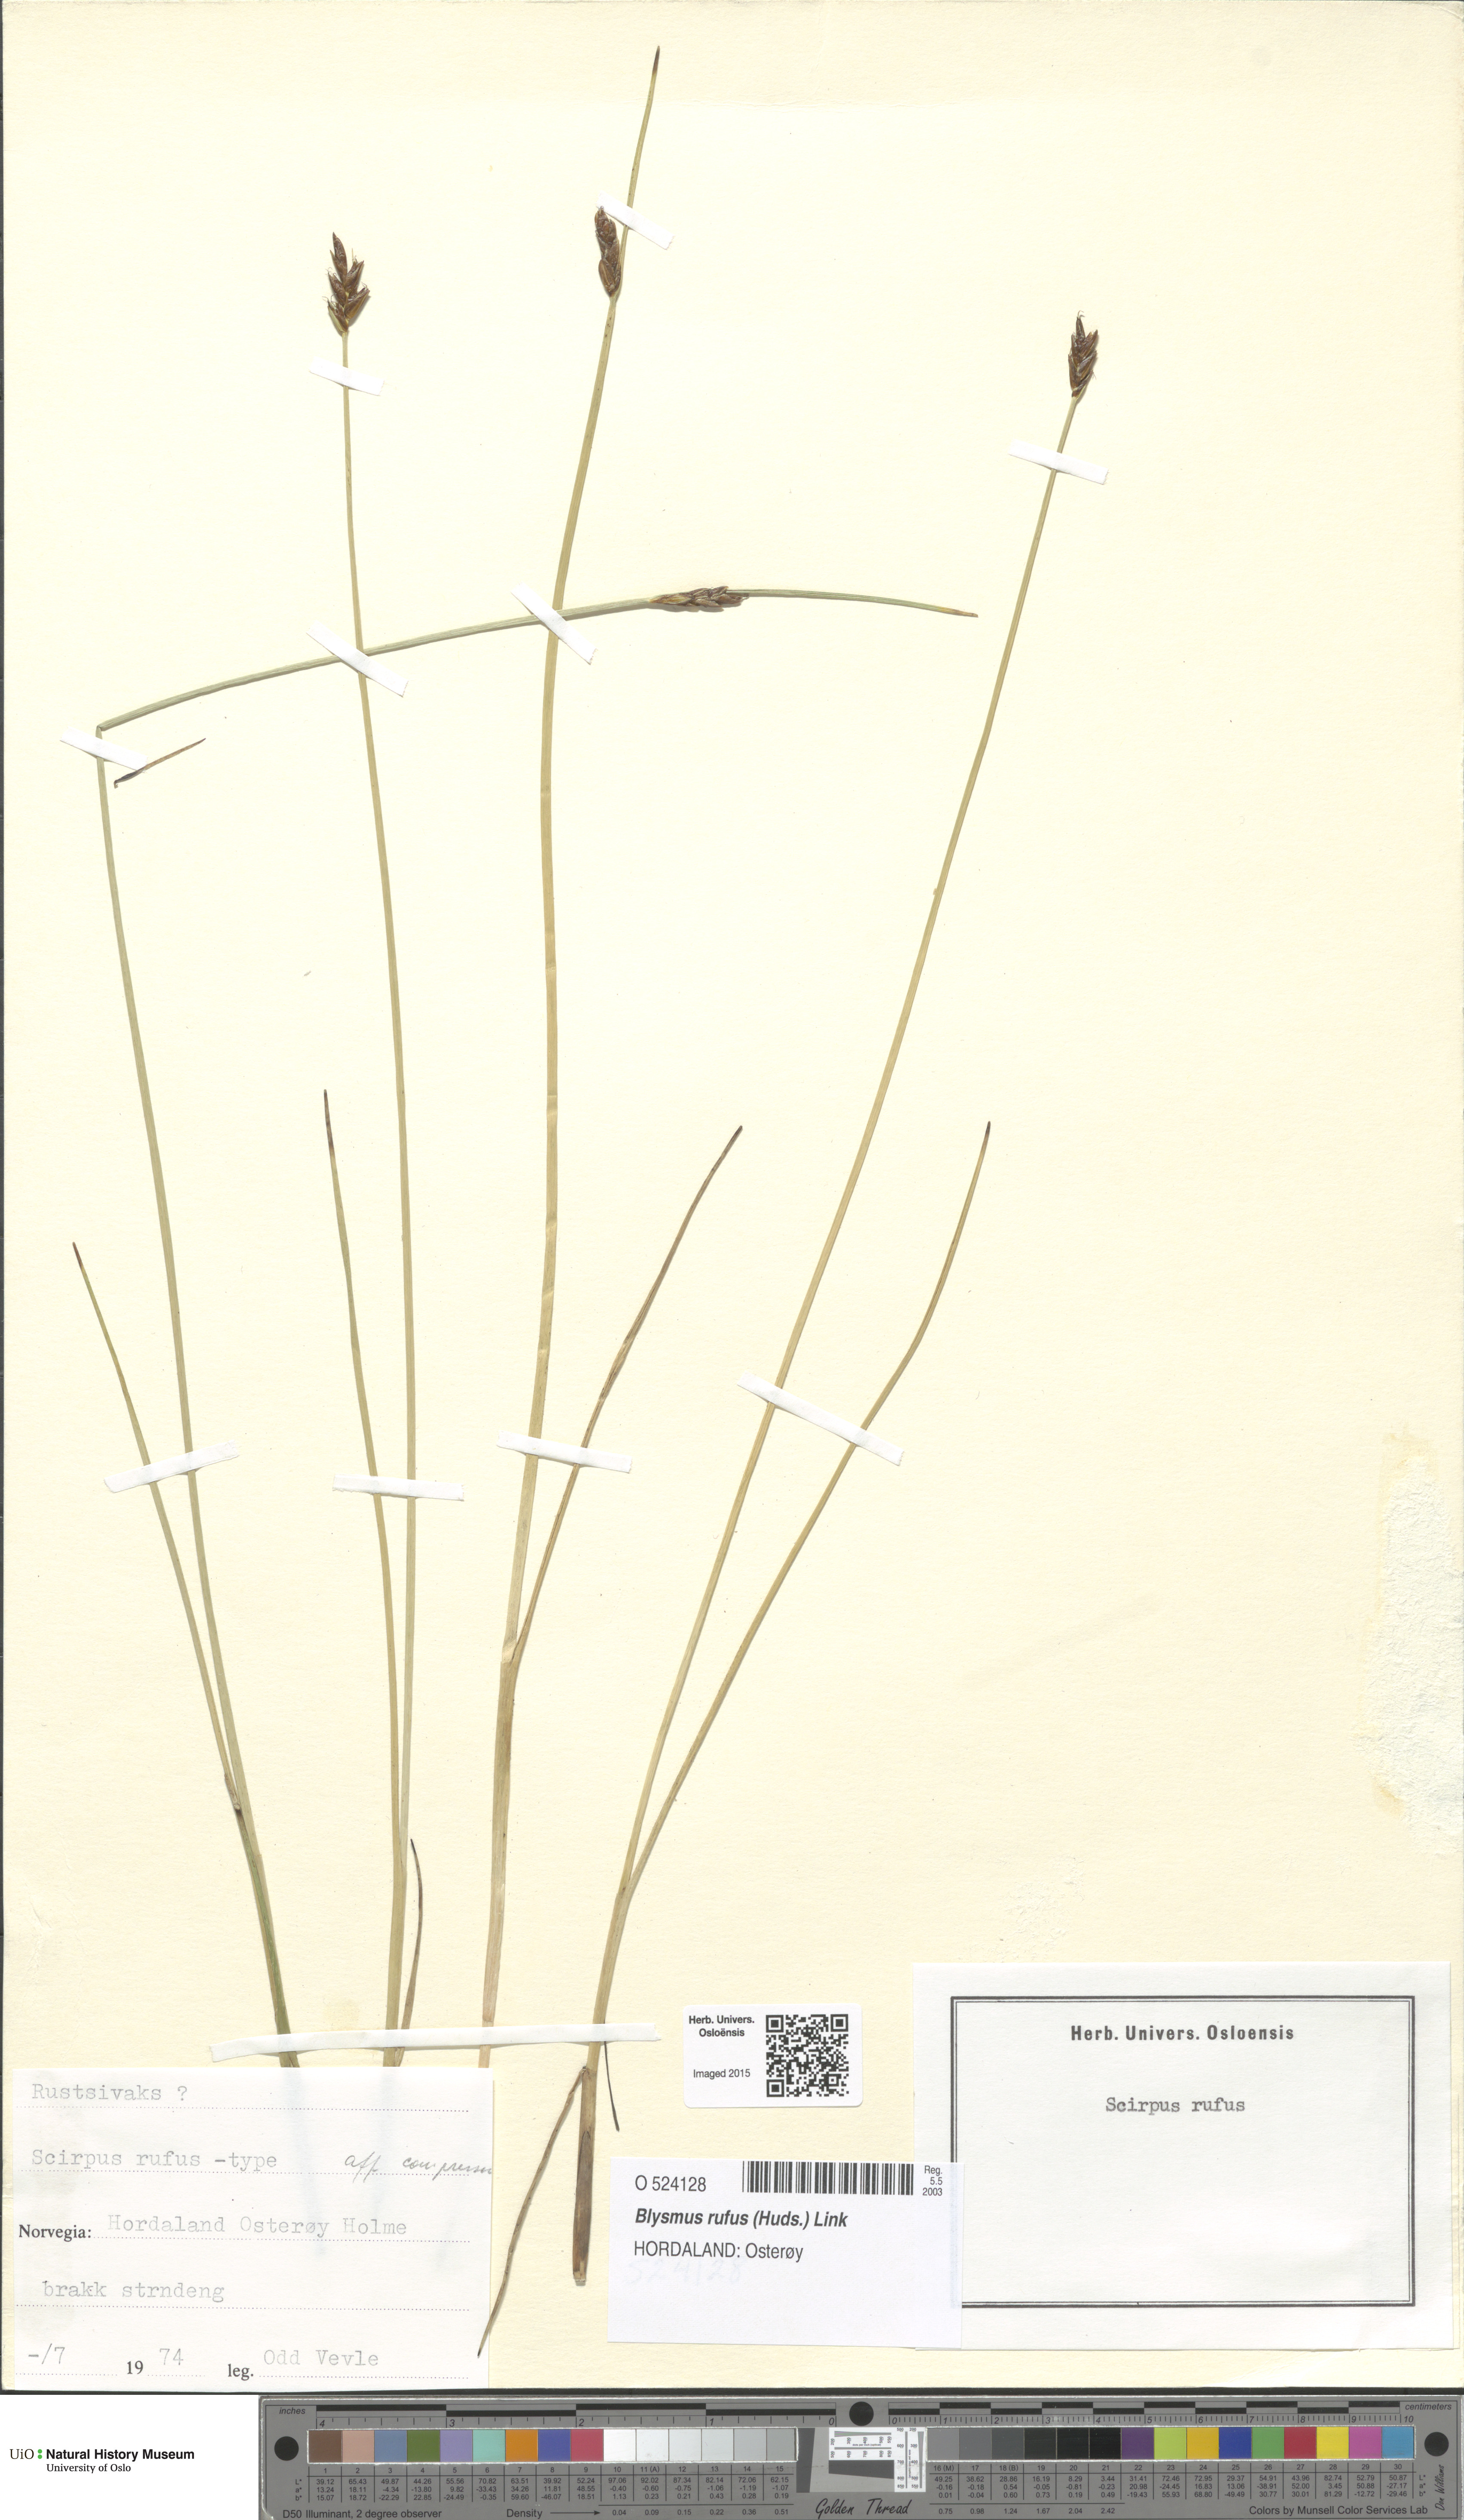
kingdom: Plantae
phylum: Tracheophyta
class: Liliopsida
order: Poales
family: Cyperaceae
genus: Blysmus
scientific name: Blysmus rufus
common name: Saltmarsh flat-sedge
